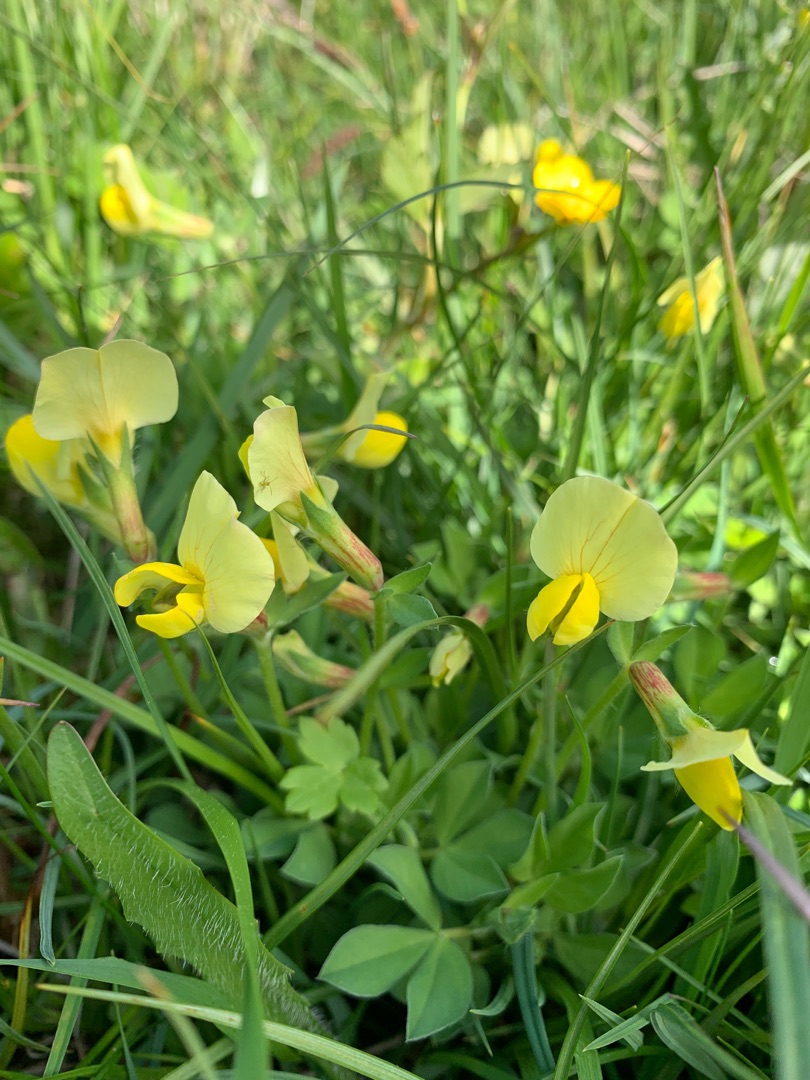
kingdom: Plantae
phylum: Tracheophyta
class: Magnoliopsida
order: Fabales
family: Fabaceae
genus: Lotus
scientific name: Lotus maritimus
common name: Kantbælg
